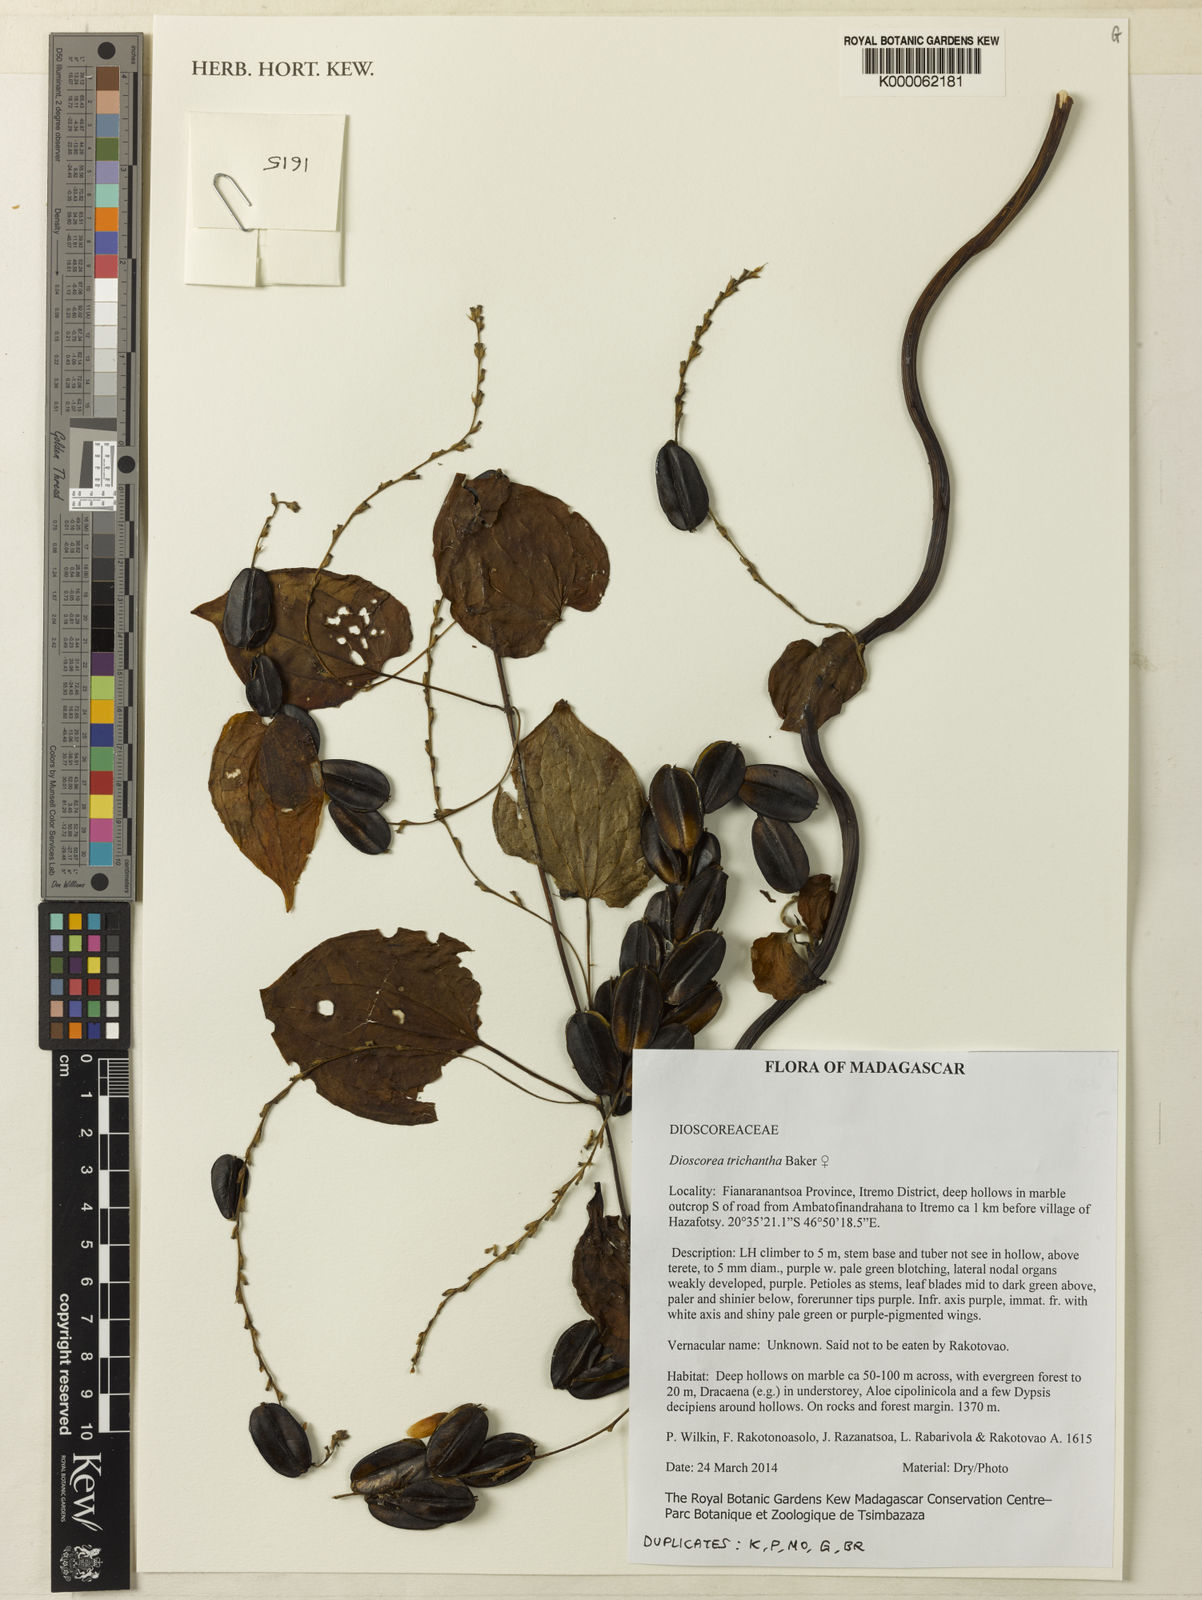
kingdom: Plantae
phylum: Tracheophyta
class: Liliopsida
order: Dioscoreales
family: Dioscoreaceae
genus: Dioscorea
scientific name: Dioscorea trichantha
